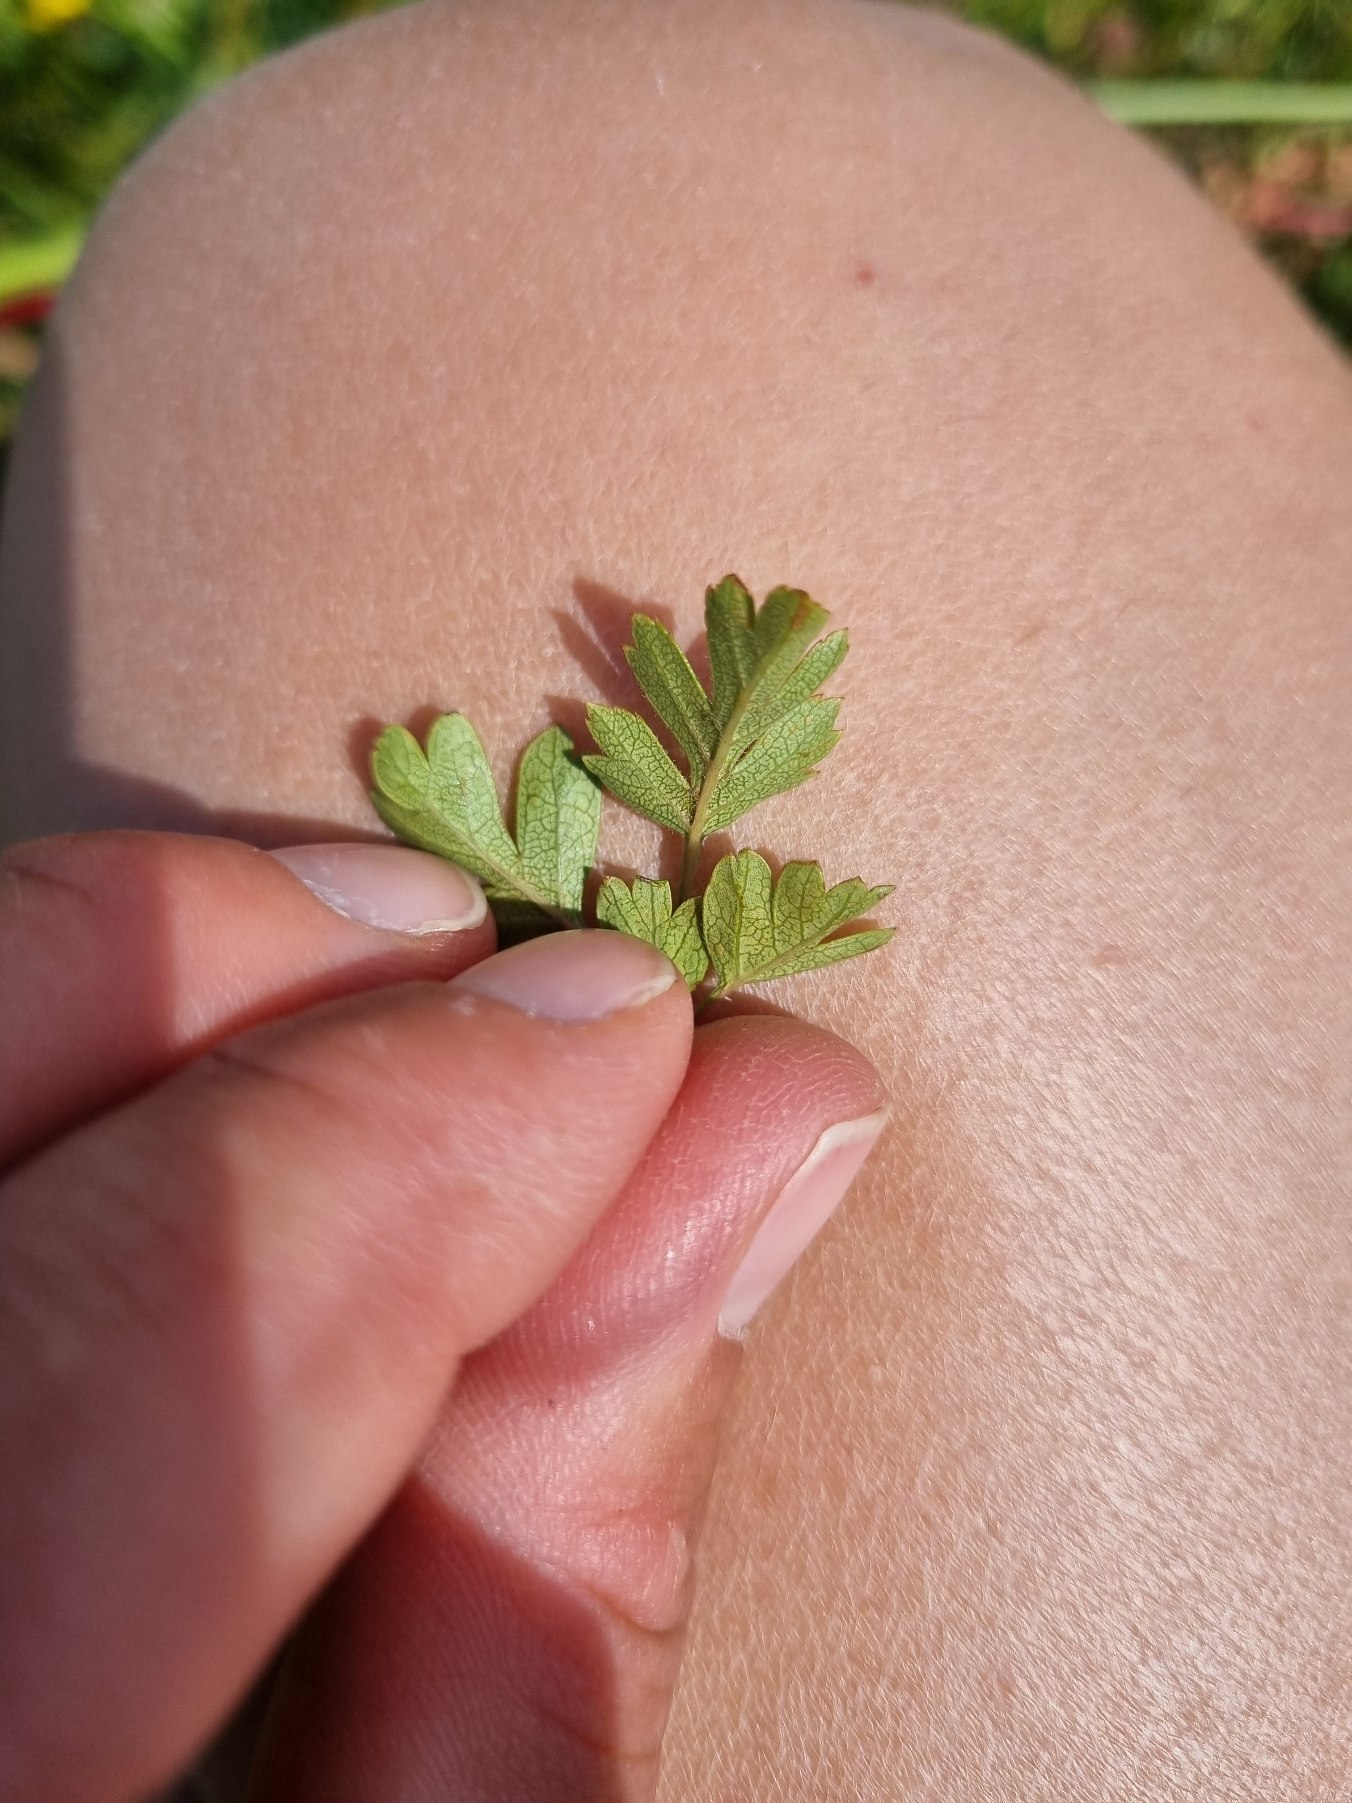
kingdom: Plantae
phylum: Tracheophyta
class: Magnoliopsida
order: Rosales
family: Rosaceae
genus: Crataegus
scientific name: Crataegus monogyna
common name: Engriflet hvidtjørn
